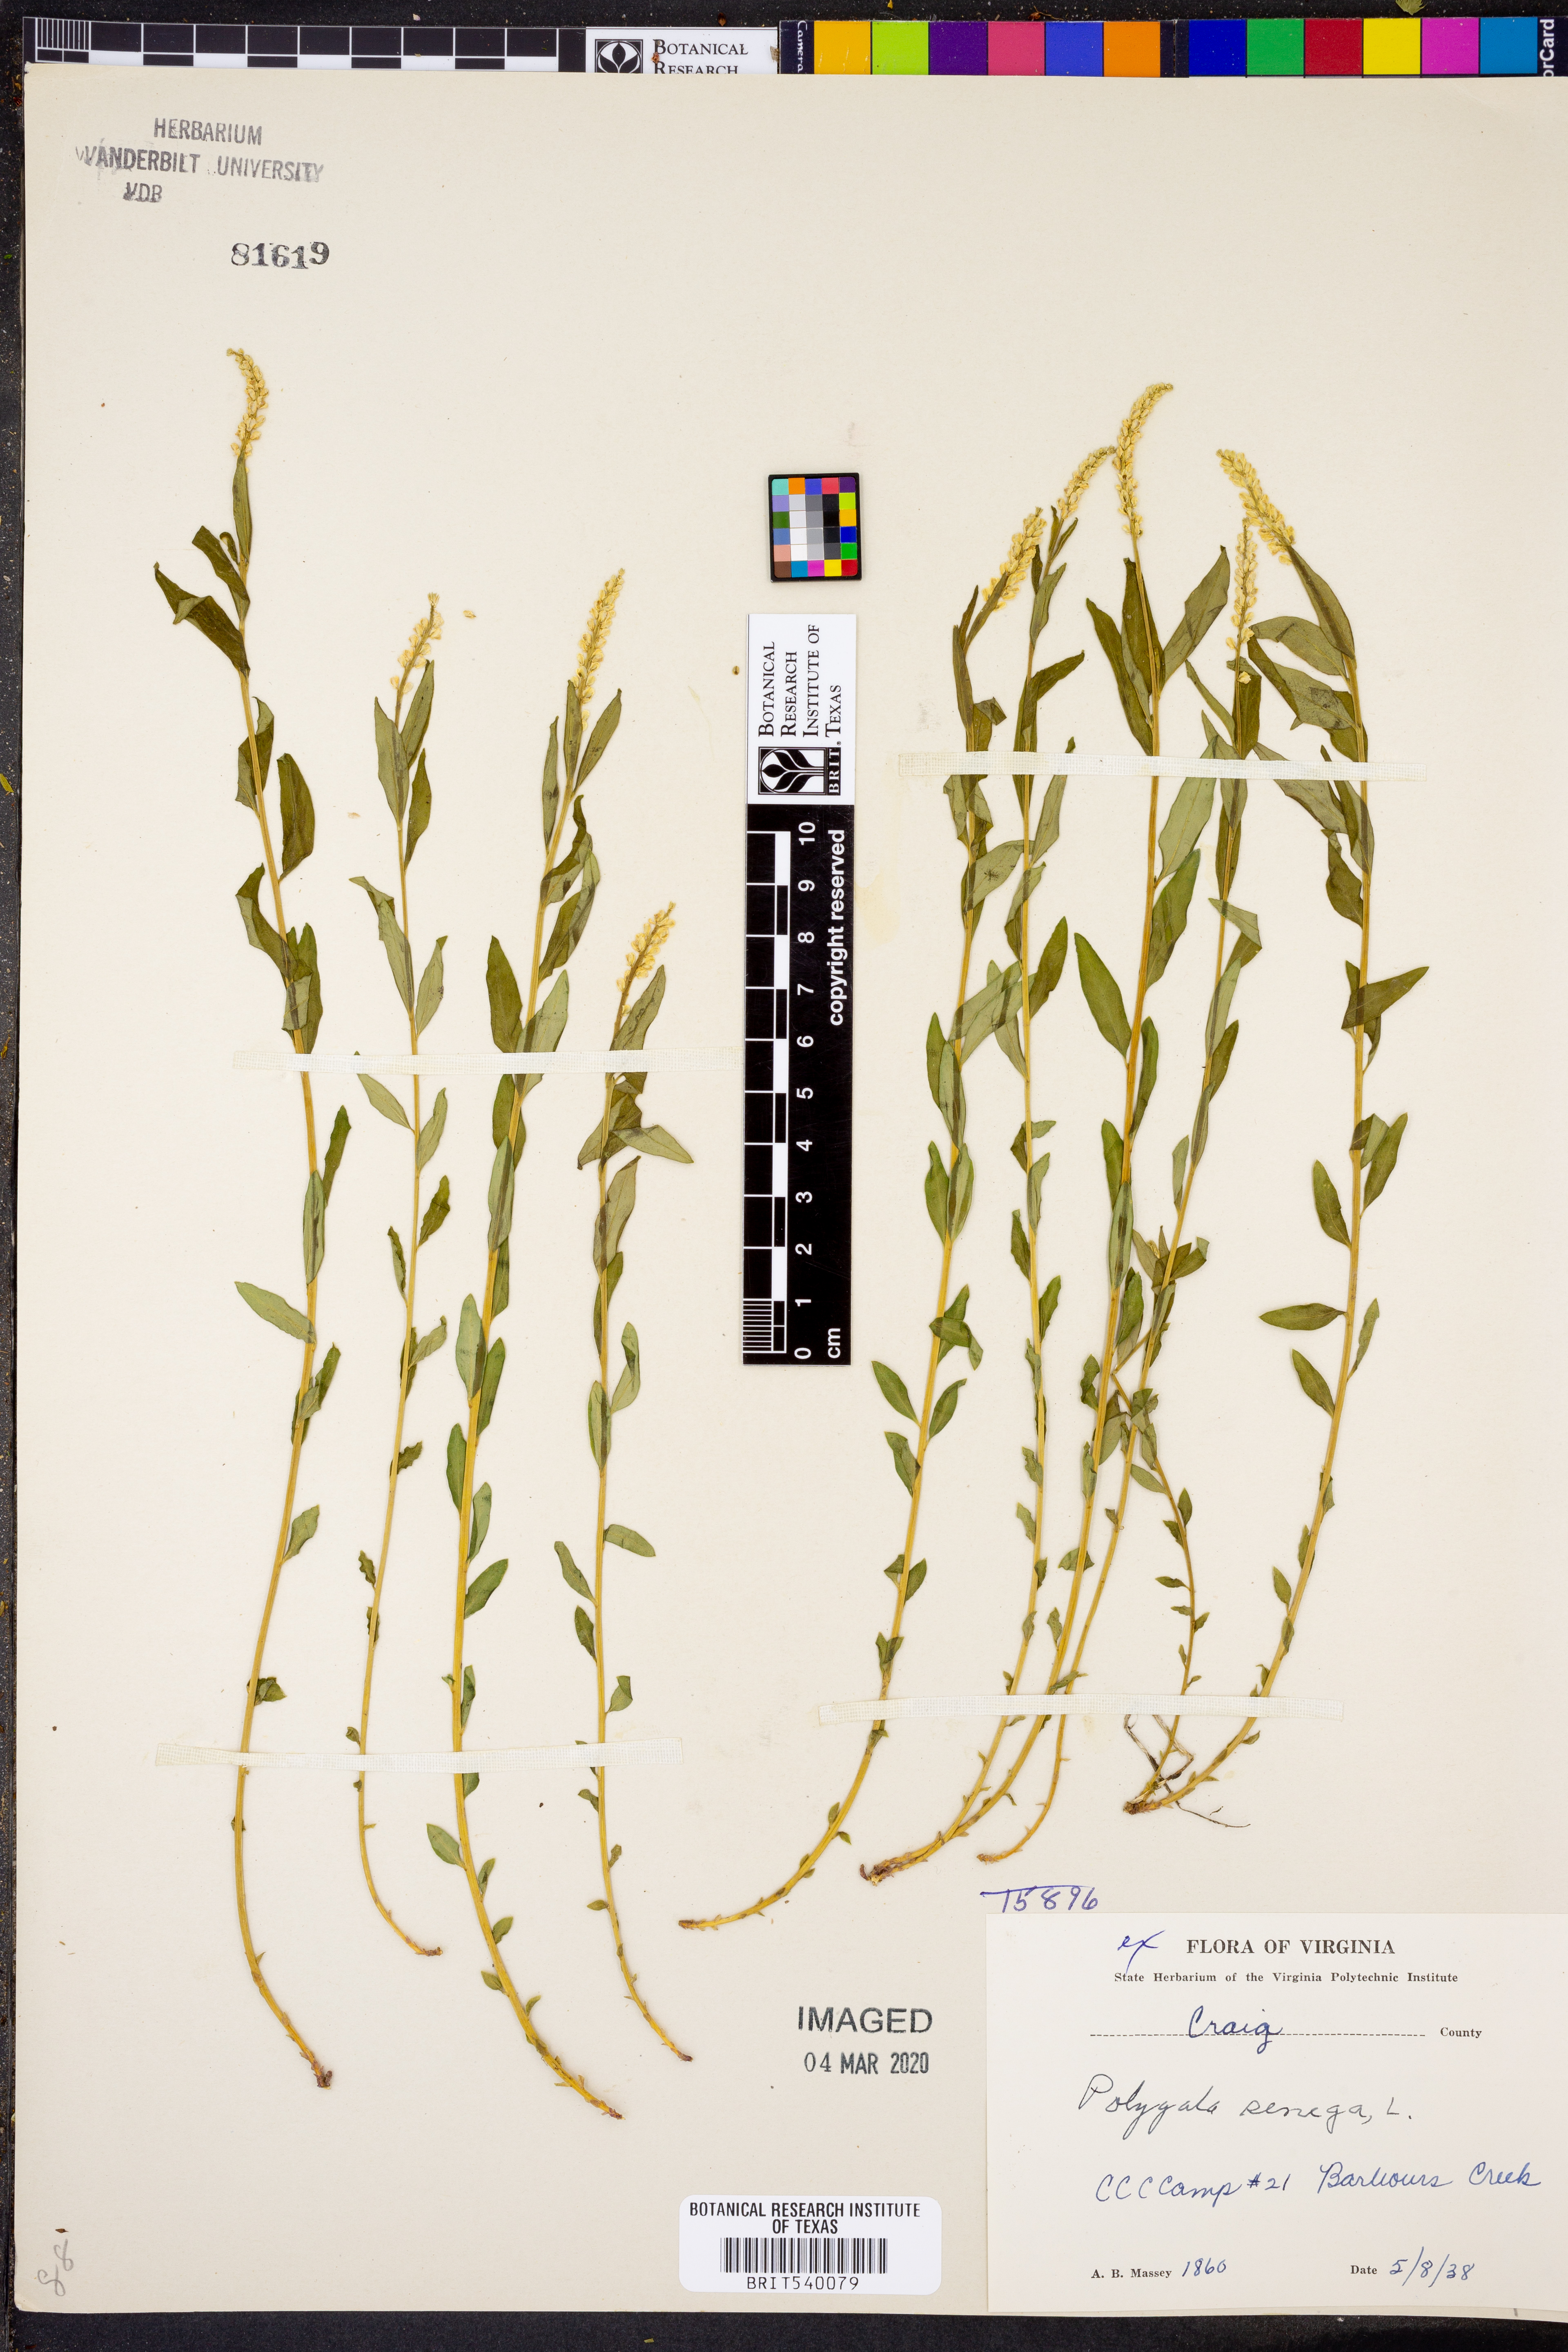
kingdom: Plantae
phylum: Tracheophyta
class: Magnoliopsida
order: Fabales
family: Polygalaceae
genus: Polygala
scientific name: Polygala senega
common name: Seneca snakeroot
